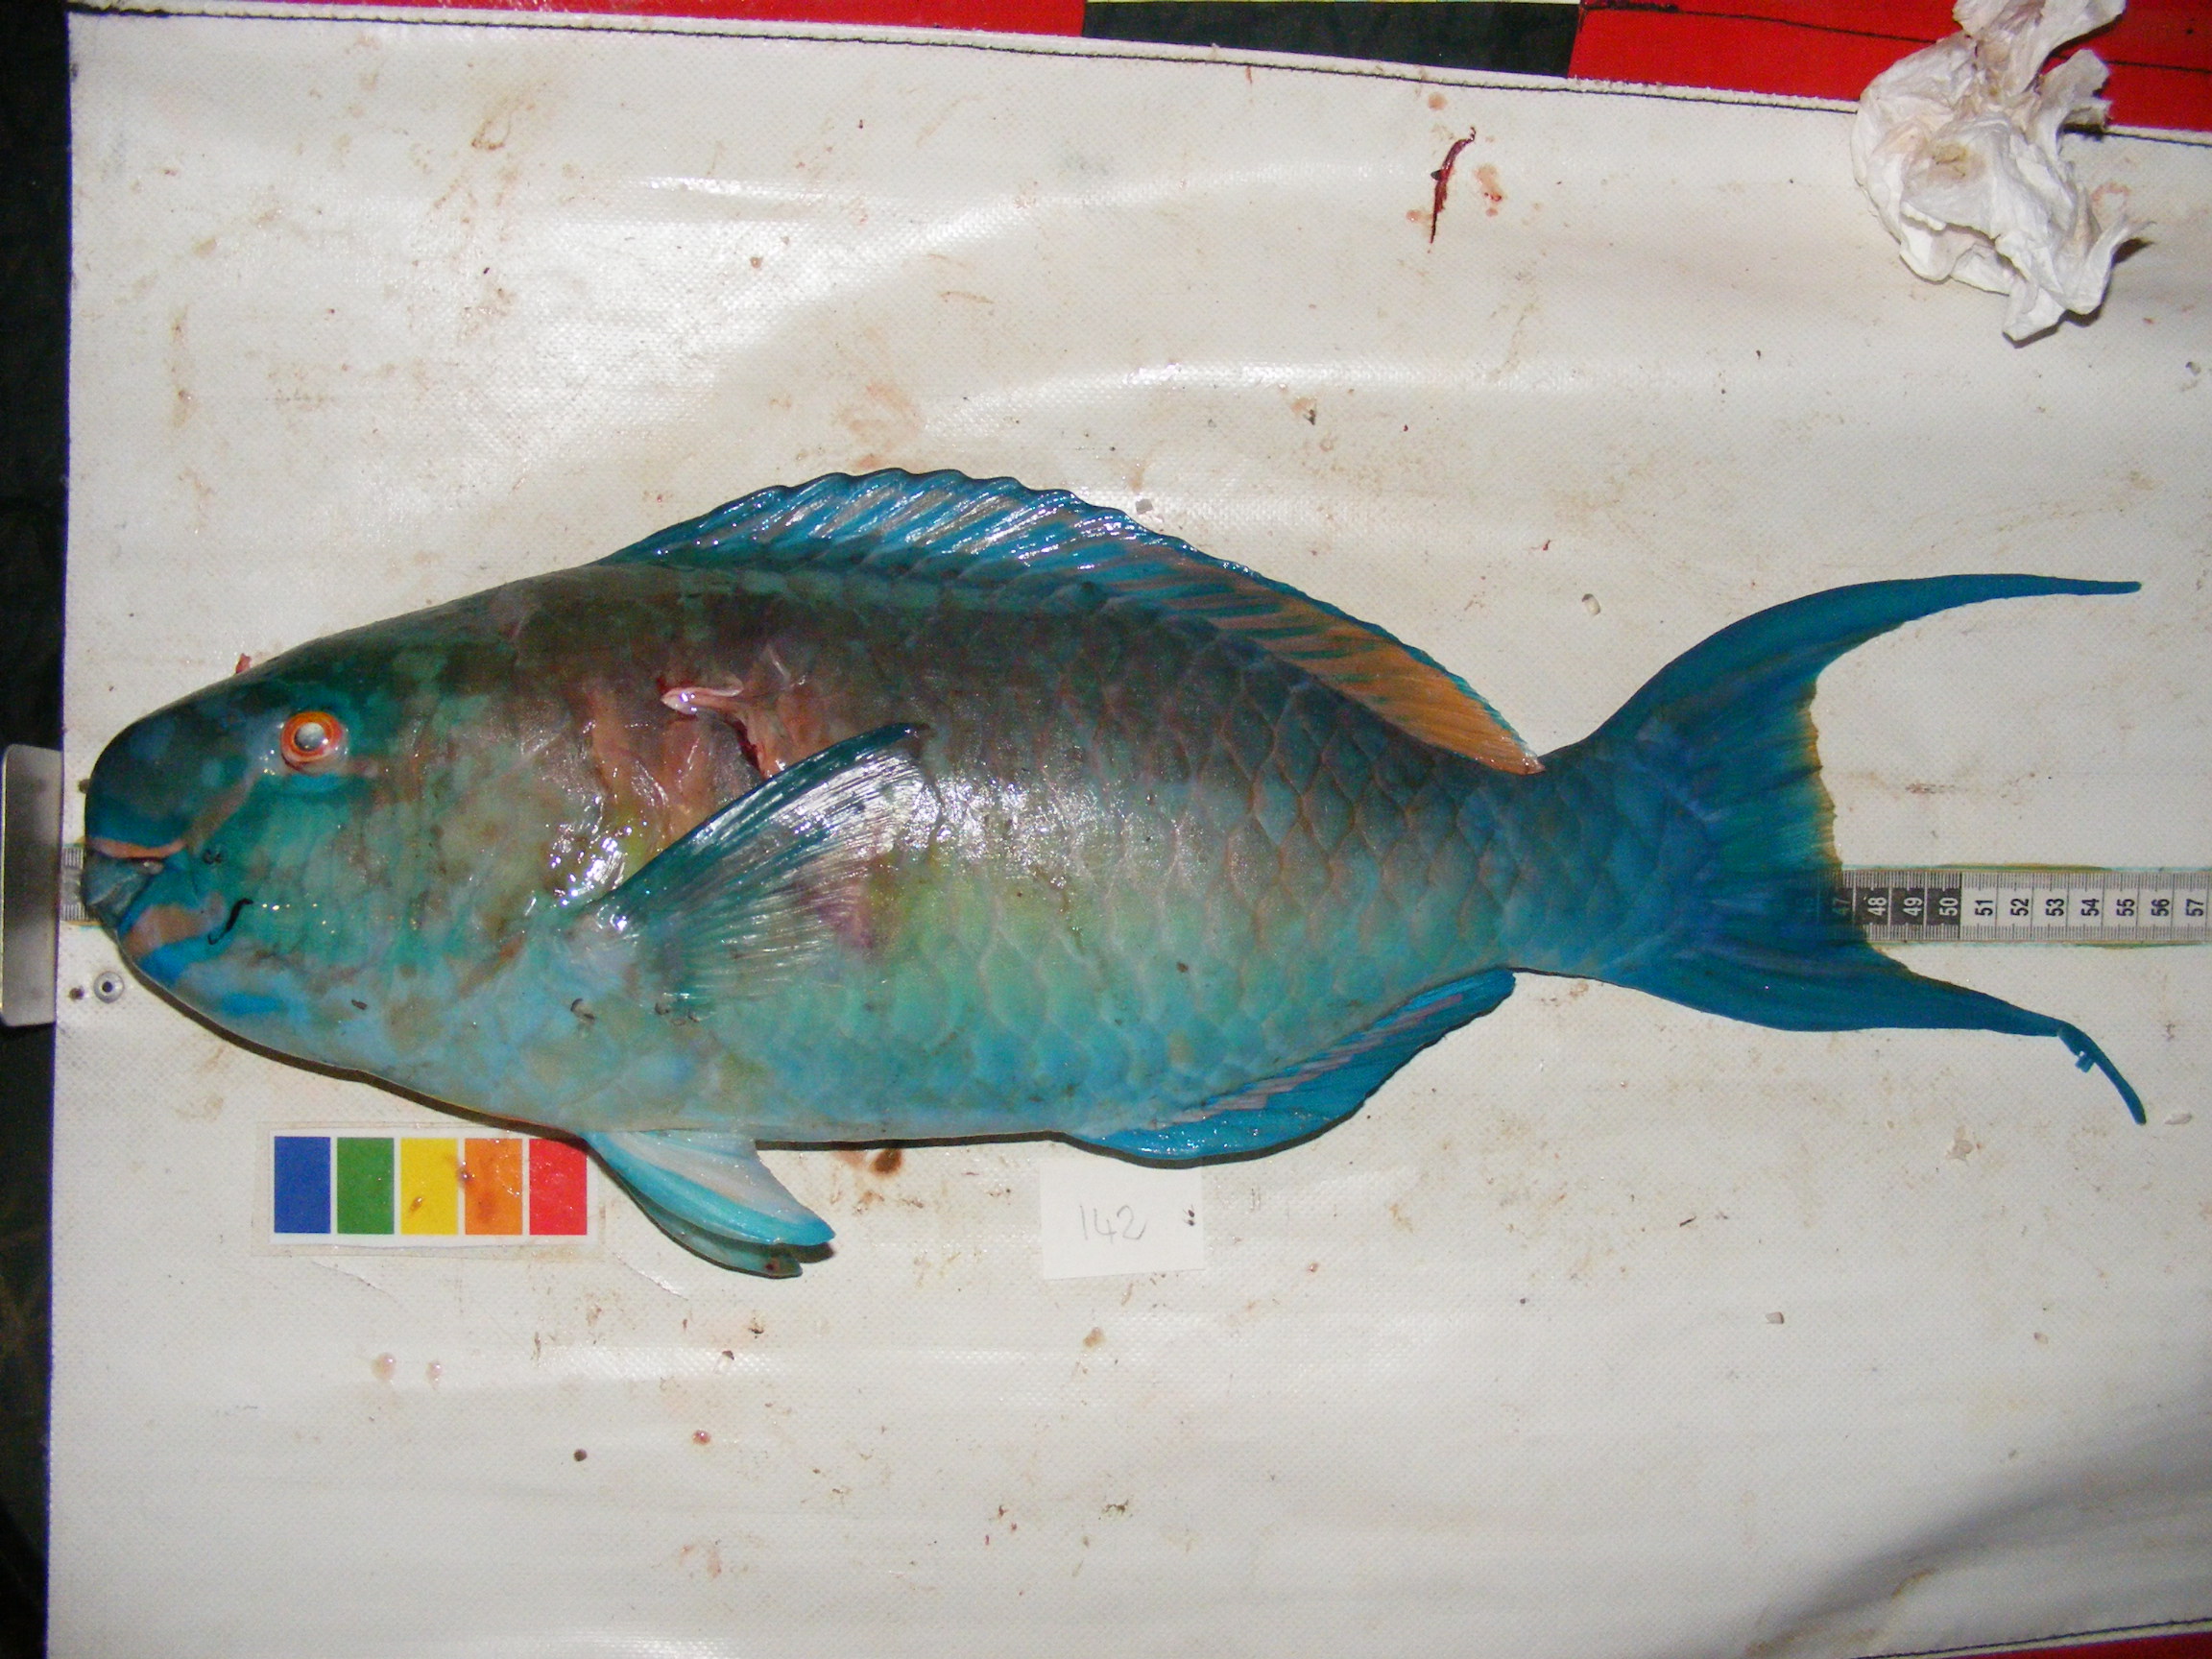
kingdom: Animalia
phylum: Chordata
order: Perciformes
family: Scaridae
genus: Scarus
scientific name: Scarus rubroviolaceus
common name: Ember parrotfish
